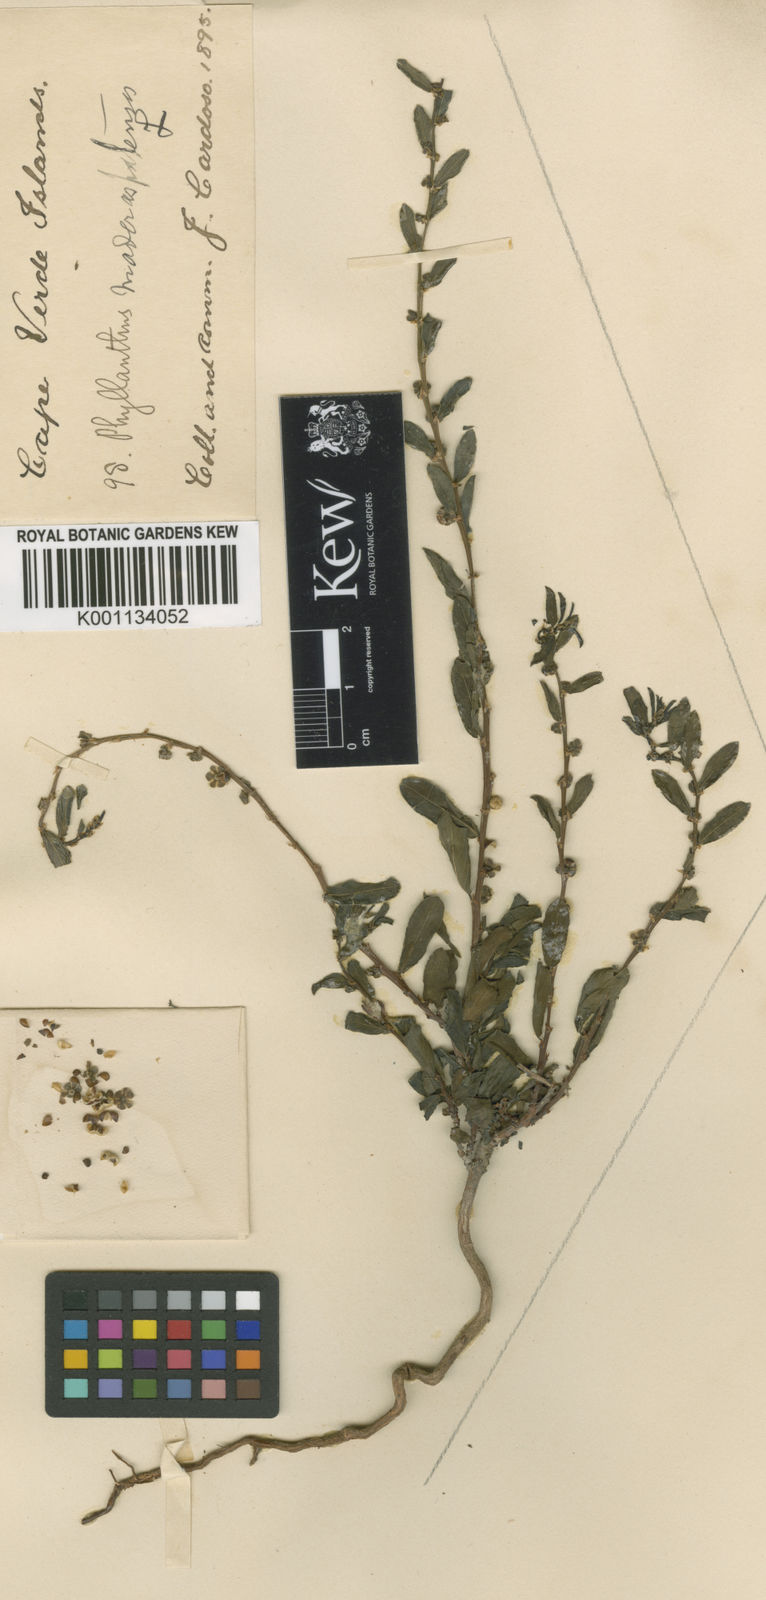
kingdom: Plantae
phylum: Tracheophyta
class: Magnoliopsida
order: Malpighiales
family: Phyllanthaceae
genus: Phyllanthus
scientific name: Phyllanthus maderaspatensis
